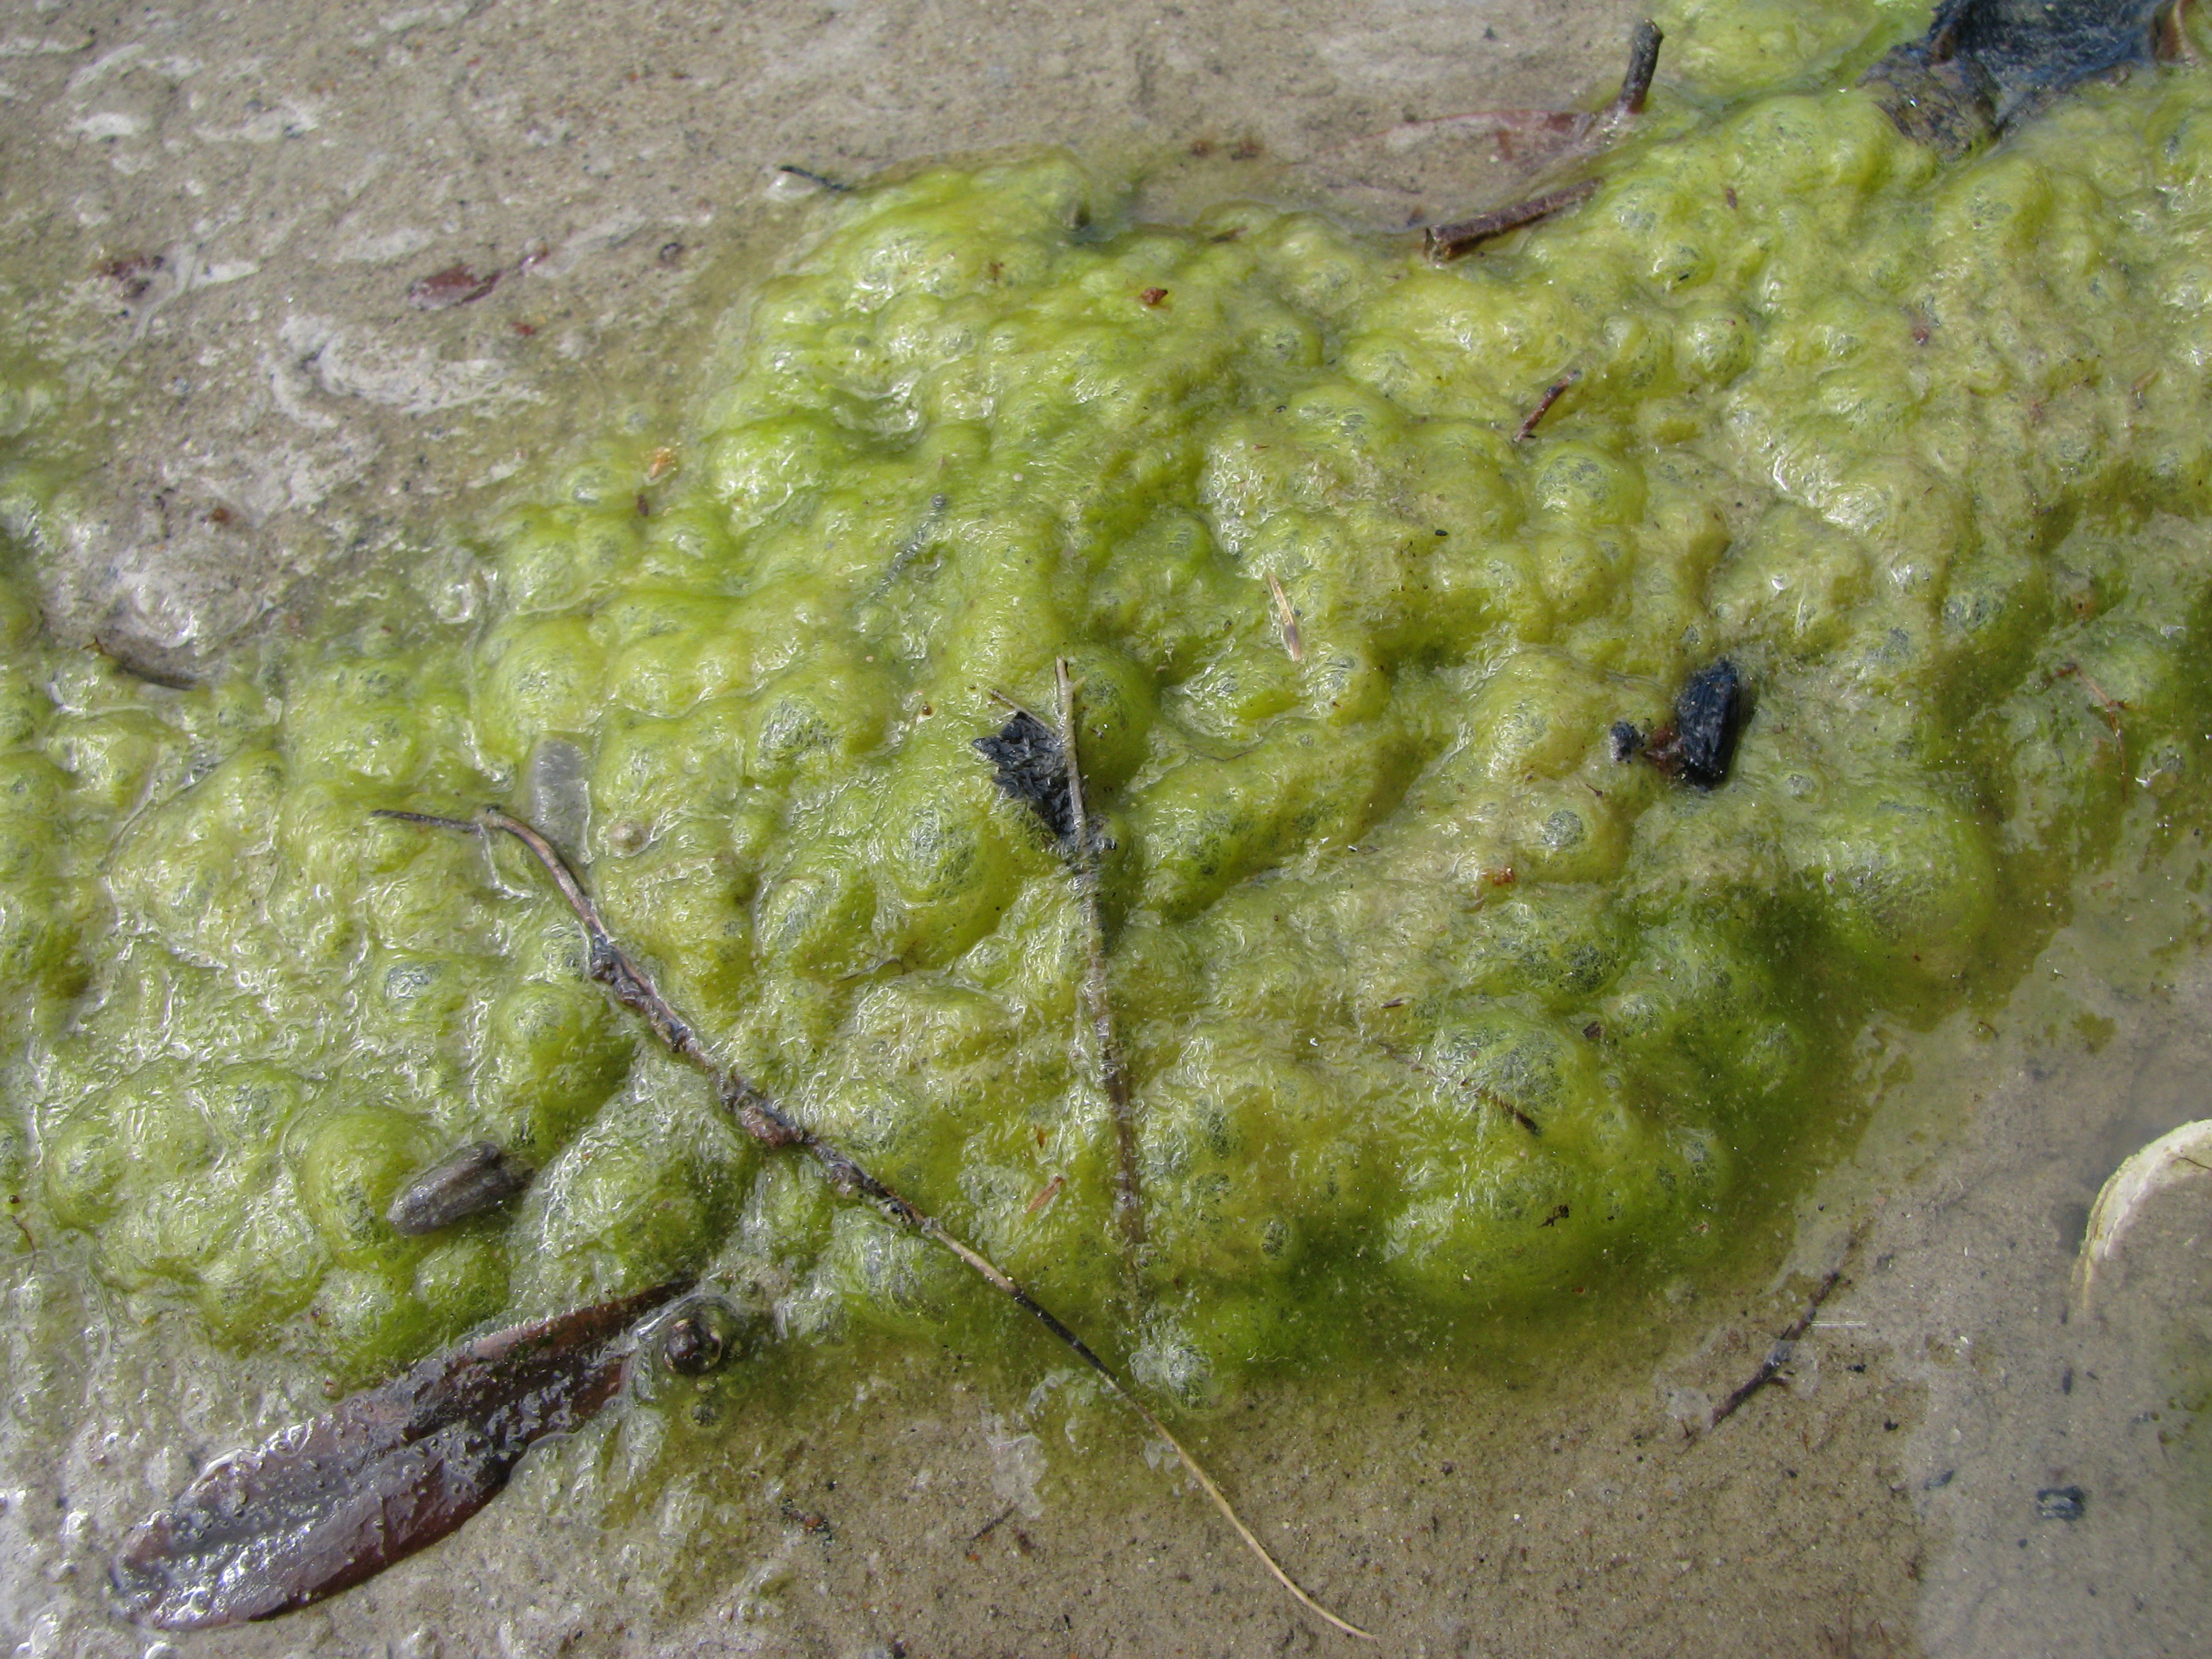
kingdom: Plantae
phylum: Chlorophyta
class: Ulvophyceae
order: Ulvales
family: Ulvaceae
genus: Percursaria
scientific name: Percursaria percursa
